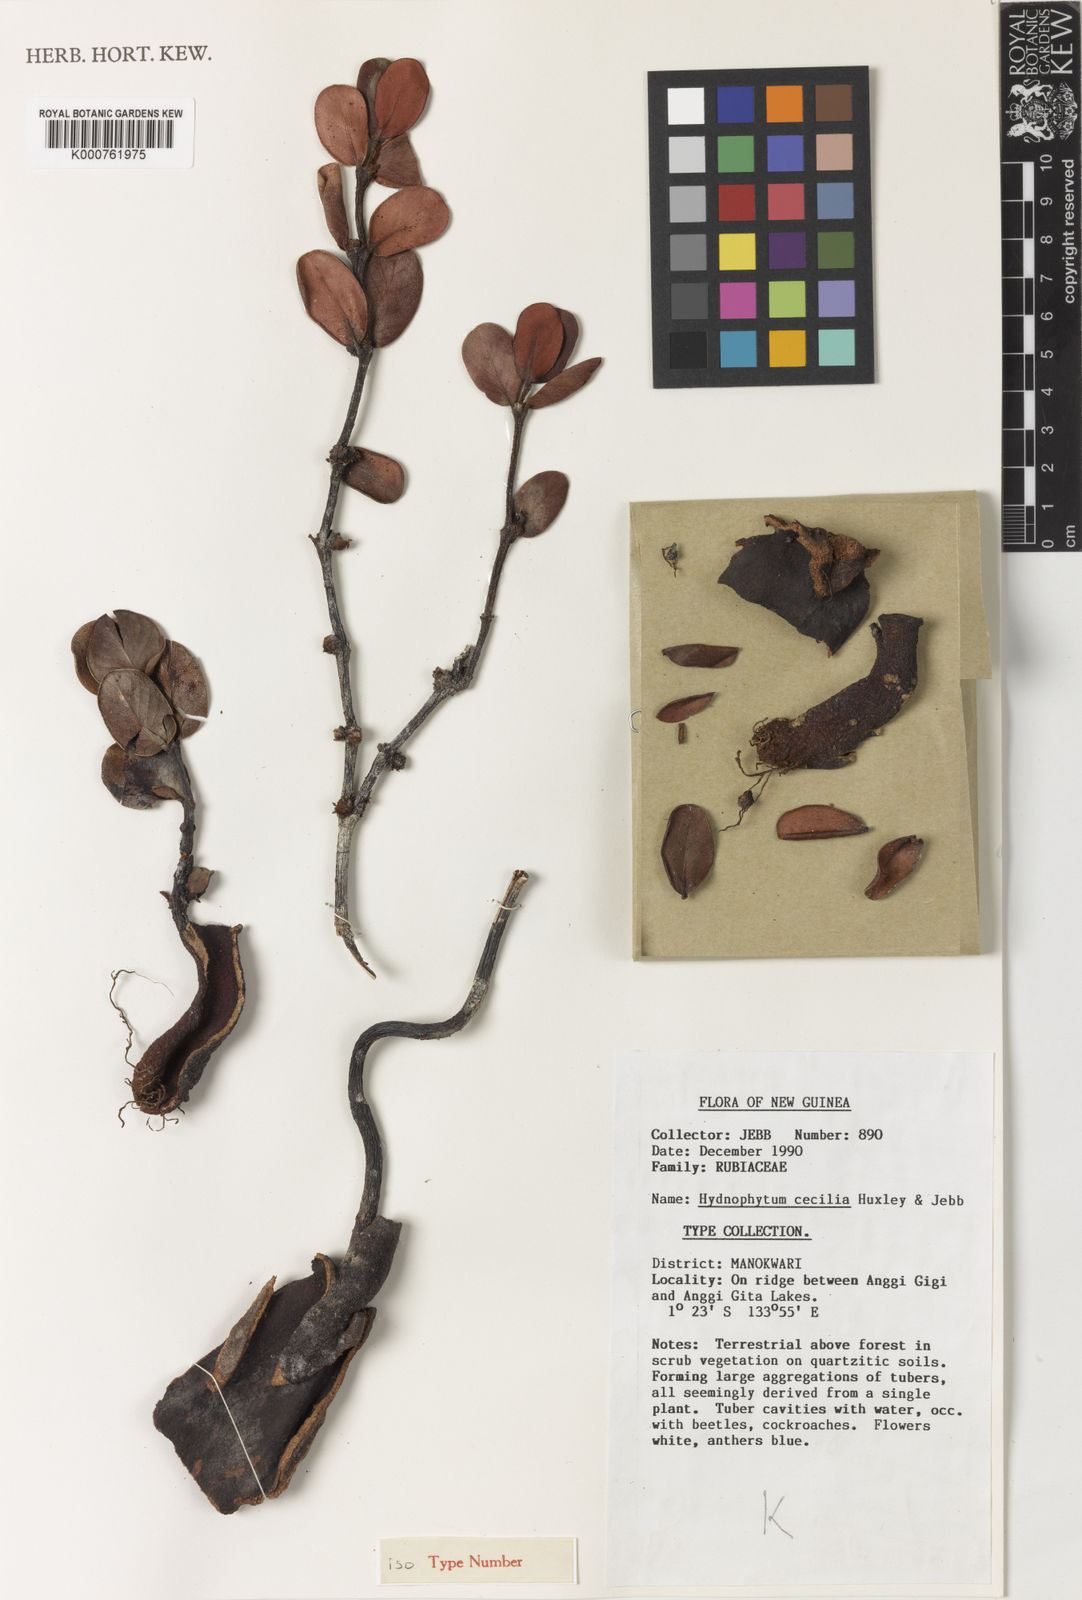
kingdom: Plantae
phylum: Tracheophyta
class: Magnoliopsida
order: Gentianales
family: Rubiaceae
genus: Hydnophytum
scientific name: Hydnophytum
